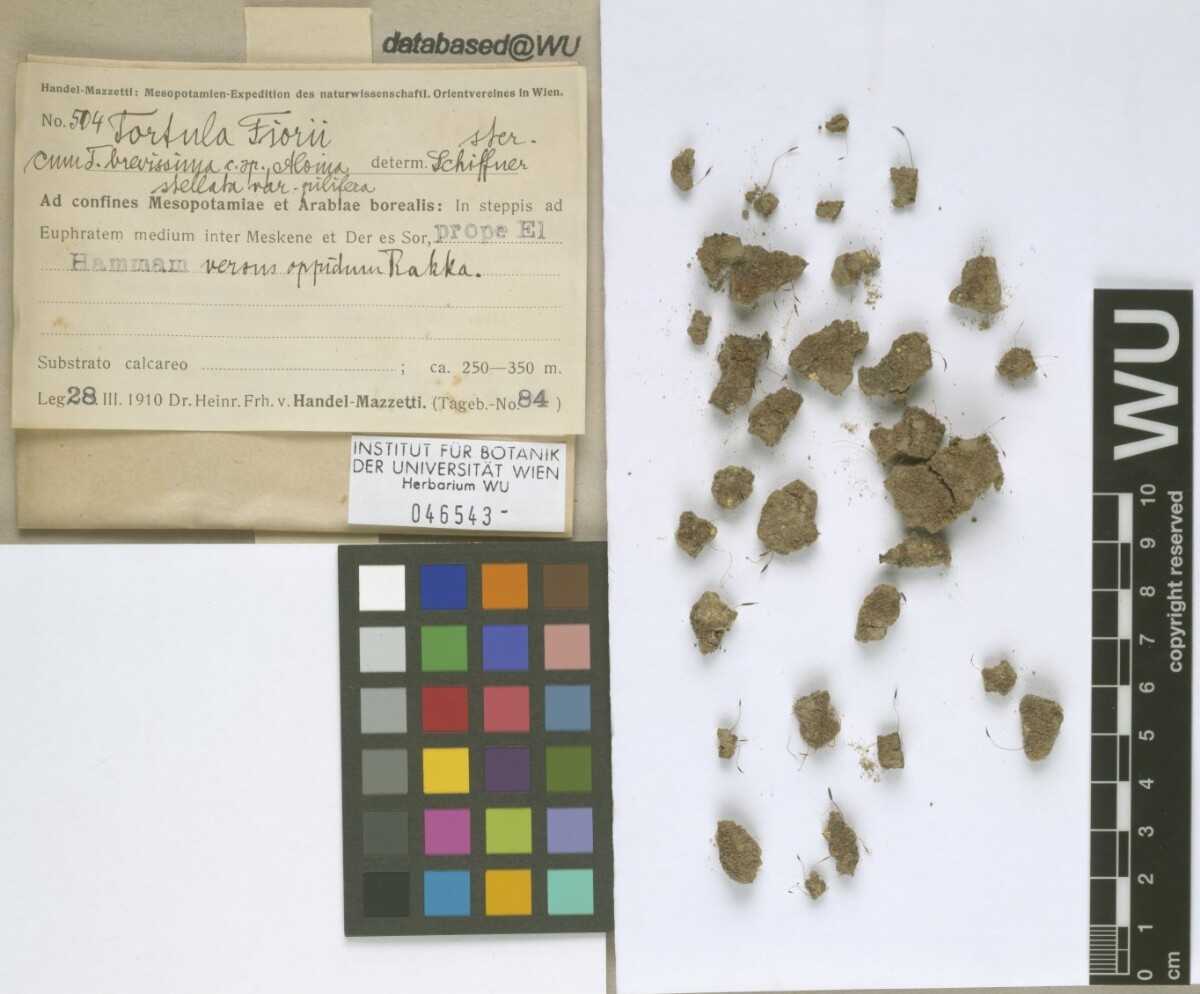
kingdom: Plantae
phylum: Bryophyta
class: Bryopsida
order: Pottiales
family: Pottiaceae
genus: Tortula
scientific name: Tortula revolvens
